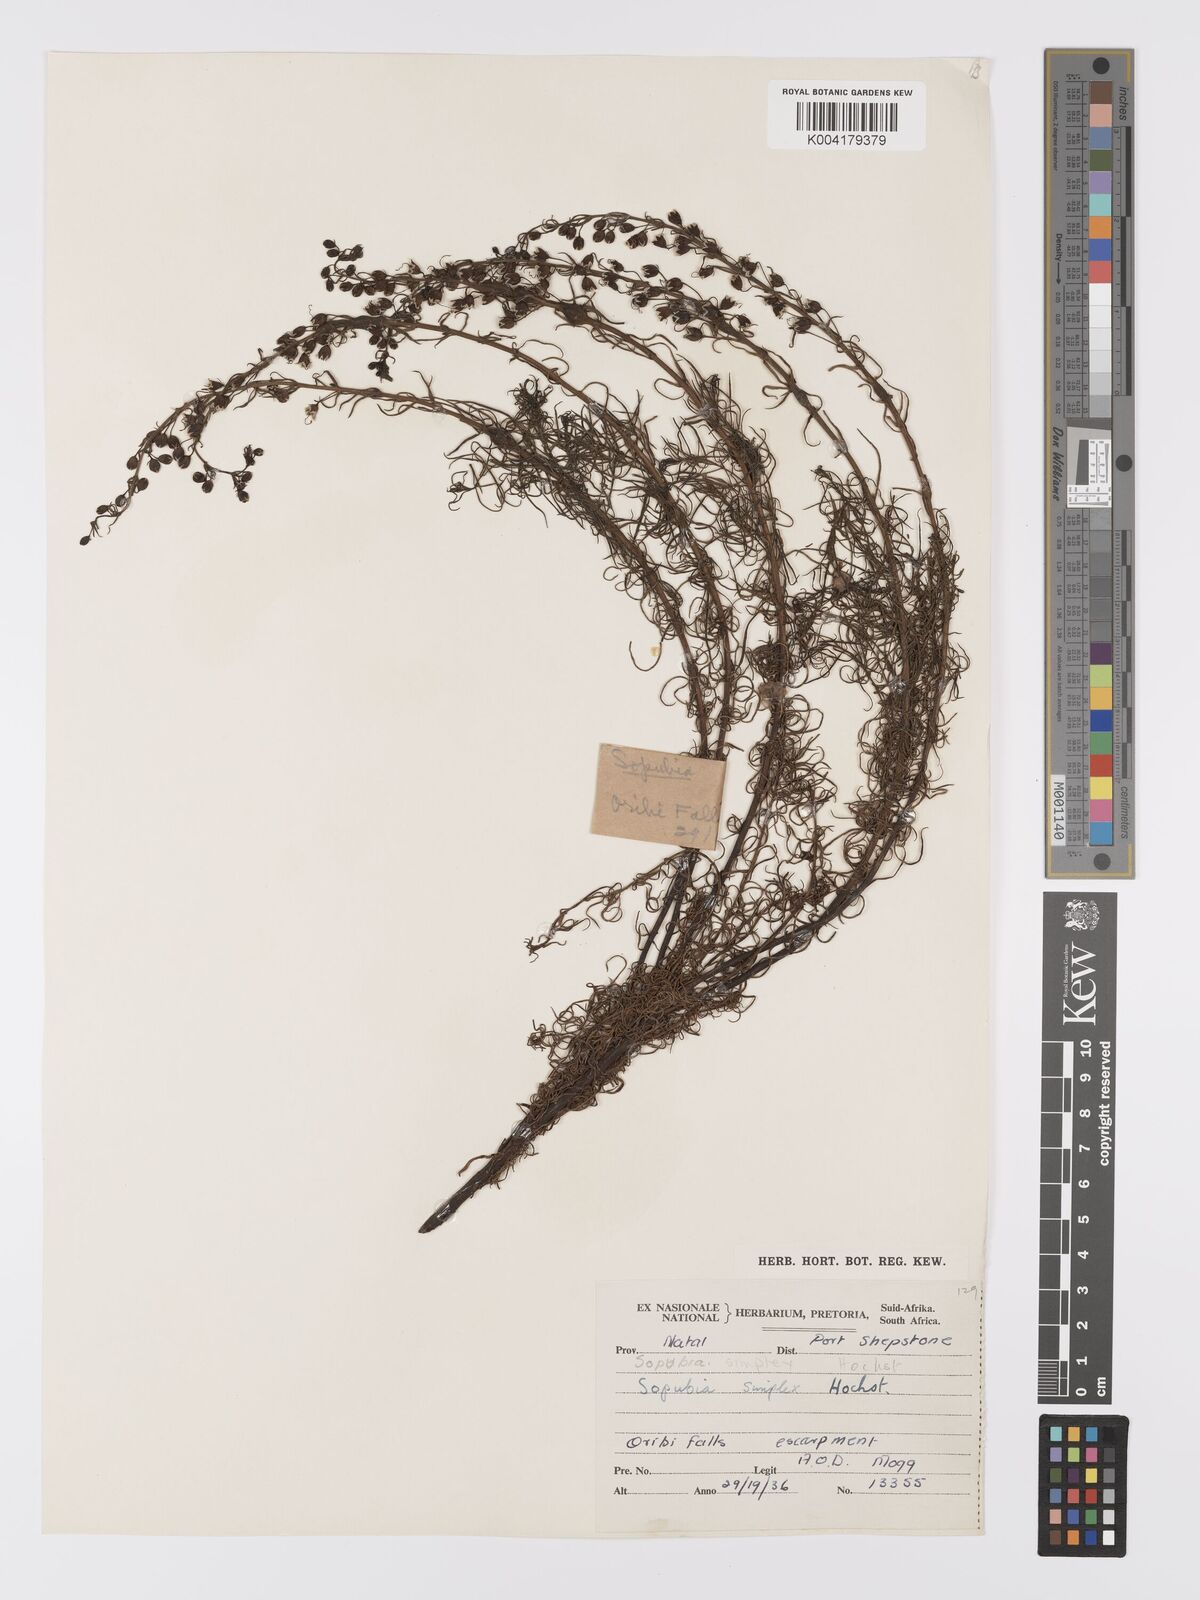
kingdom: Plantae
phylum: Tracheophyta
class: Magnoliopsida
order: Lamiales
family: Orobanchaceae
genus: Sopubia
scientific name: Sopubia simplex
